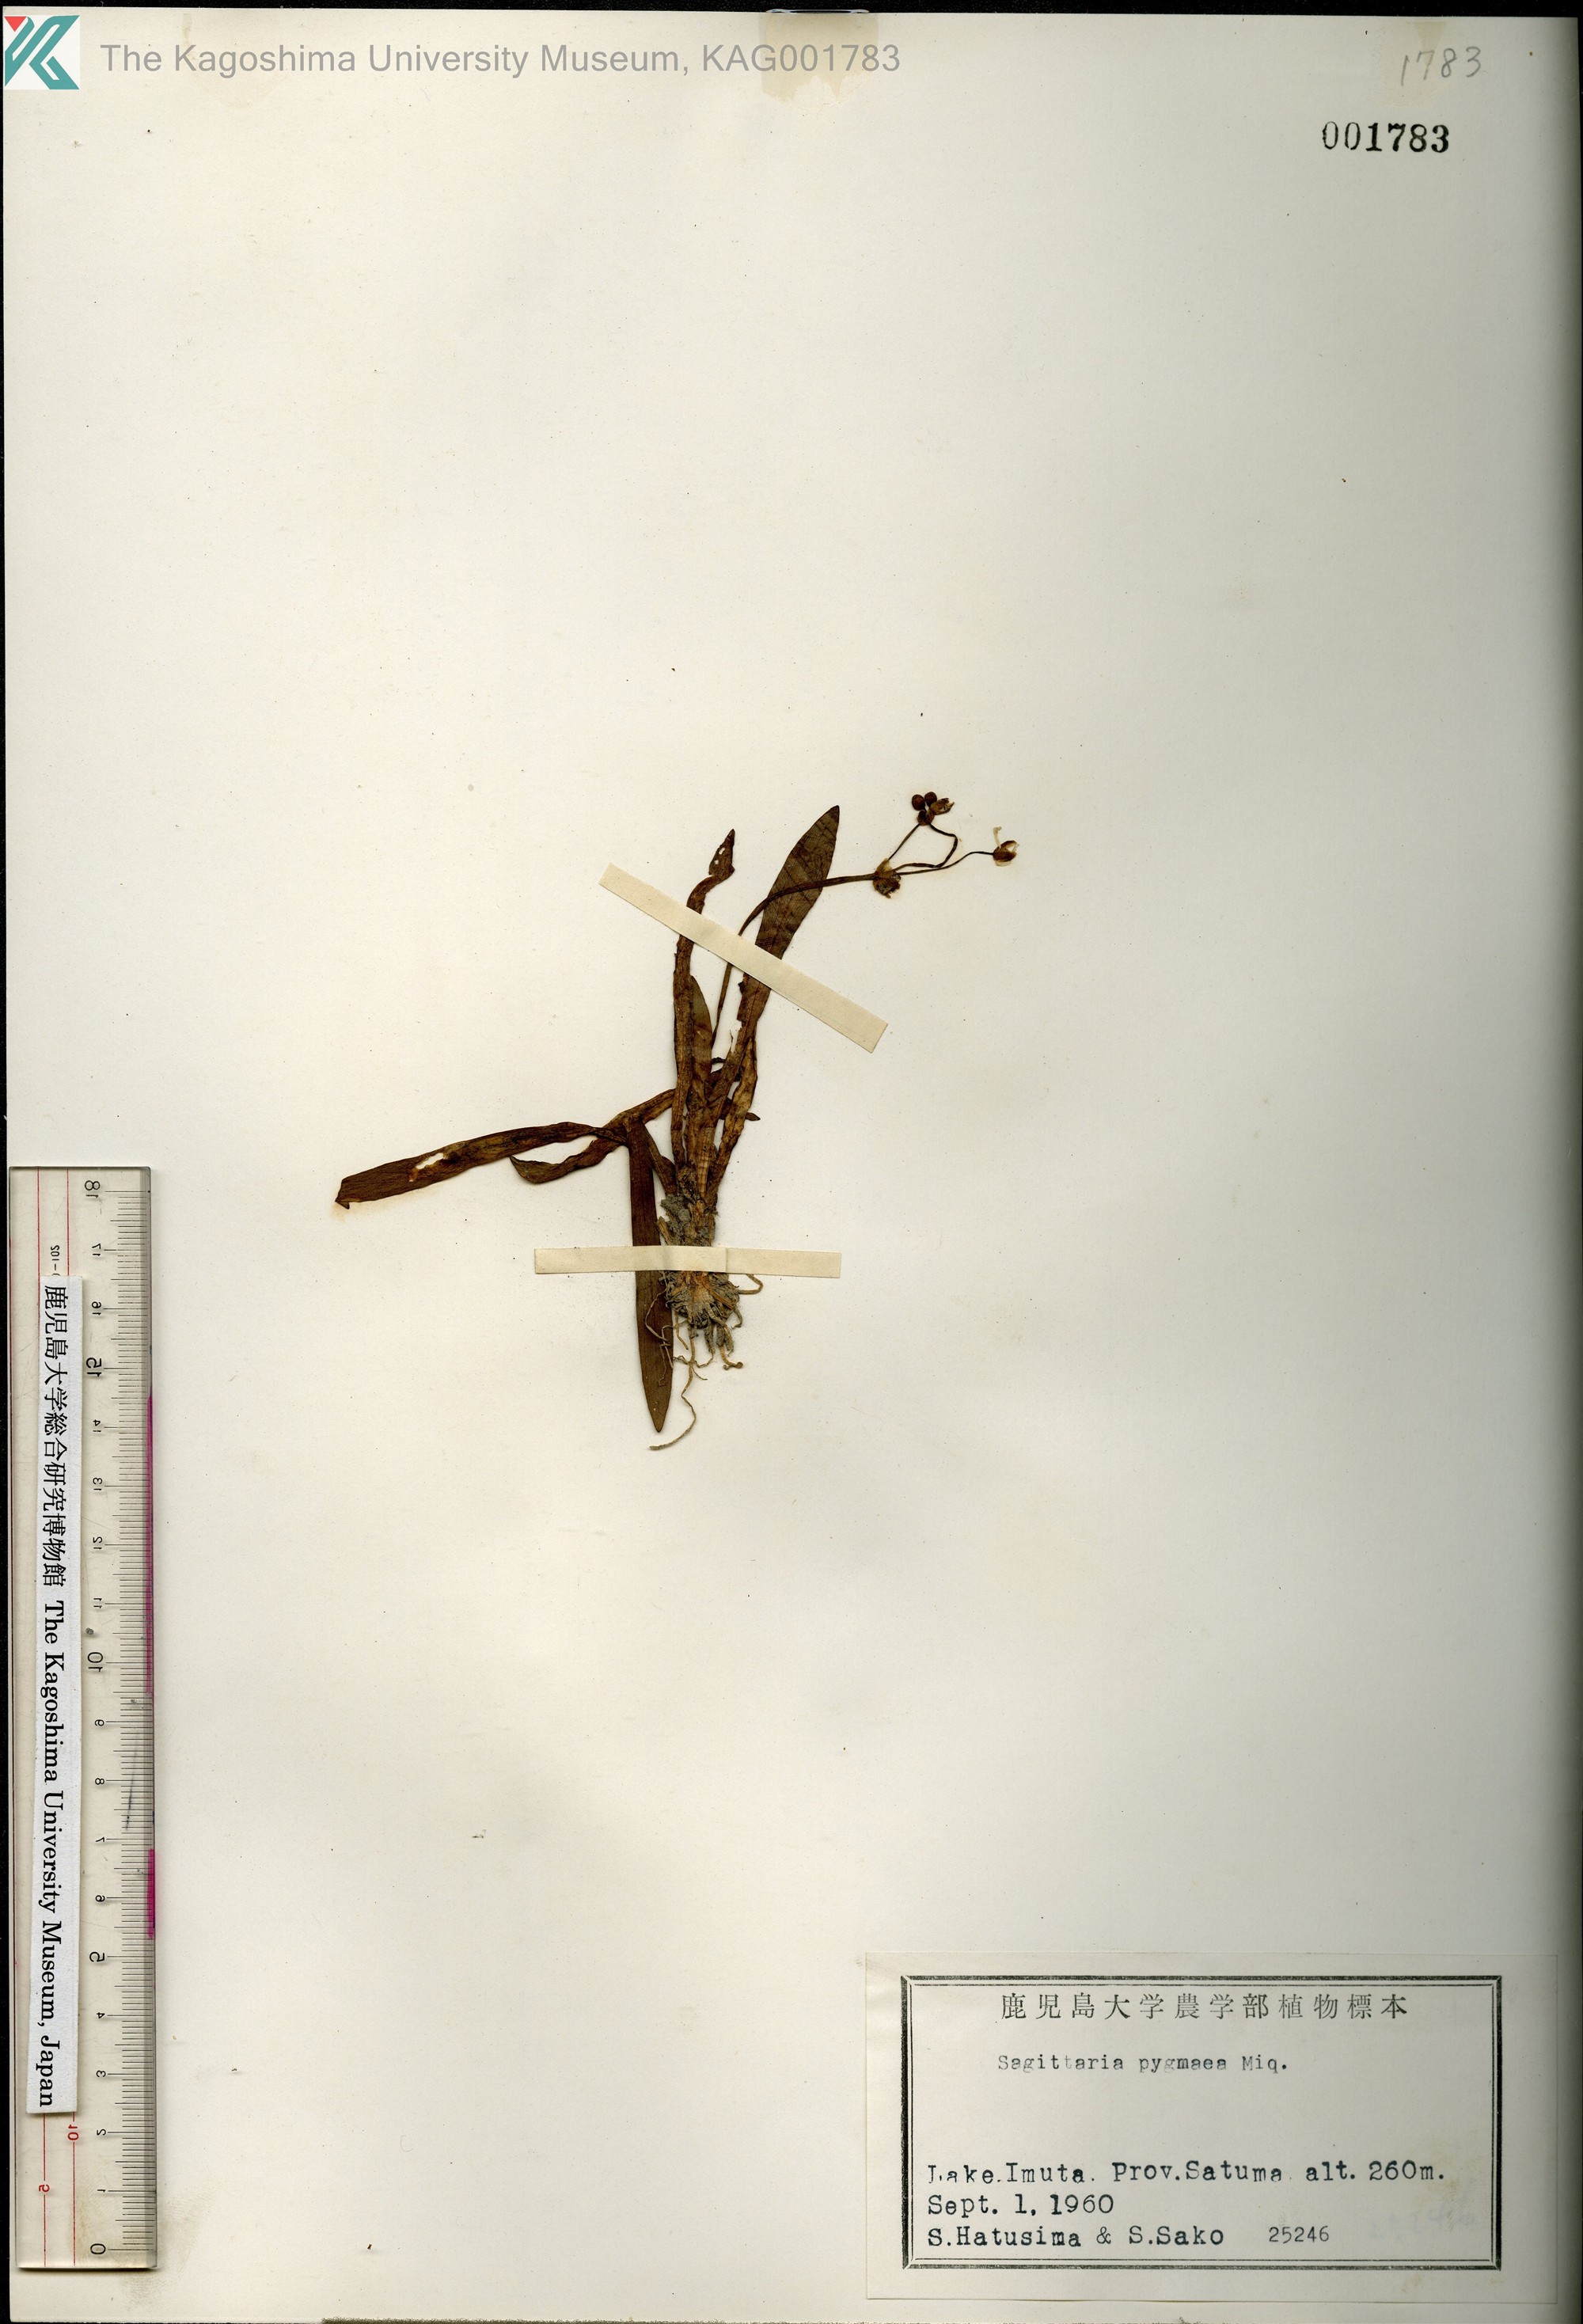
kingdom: Plantae
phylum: Tracheophyta
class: Liliopsida
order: Alismatales
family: Alismataceae
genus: Sagittaria
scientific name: Sagittaria pygmaea
